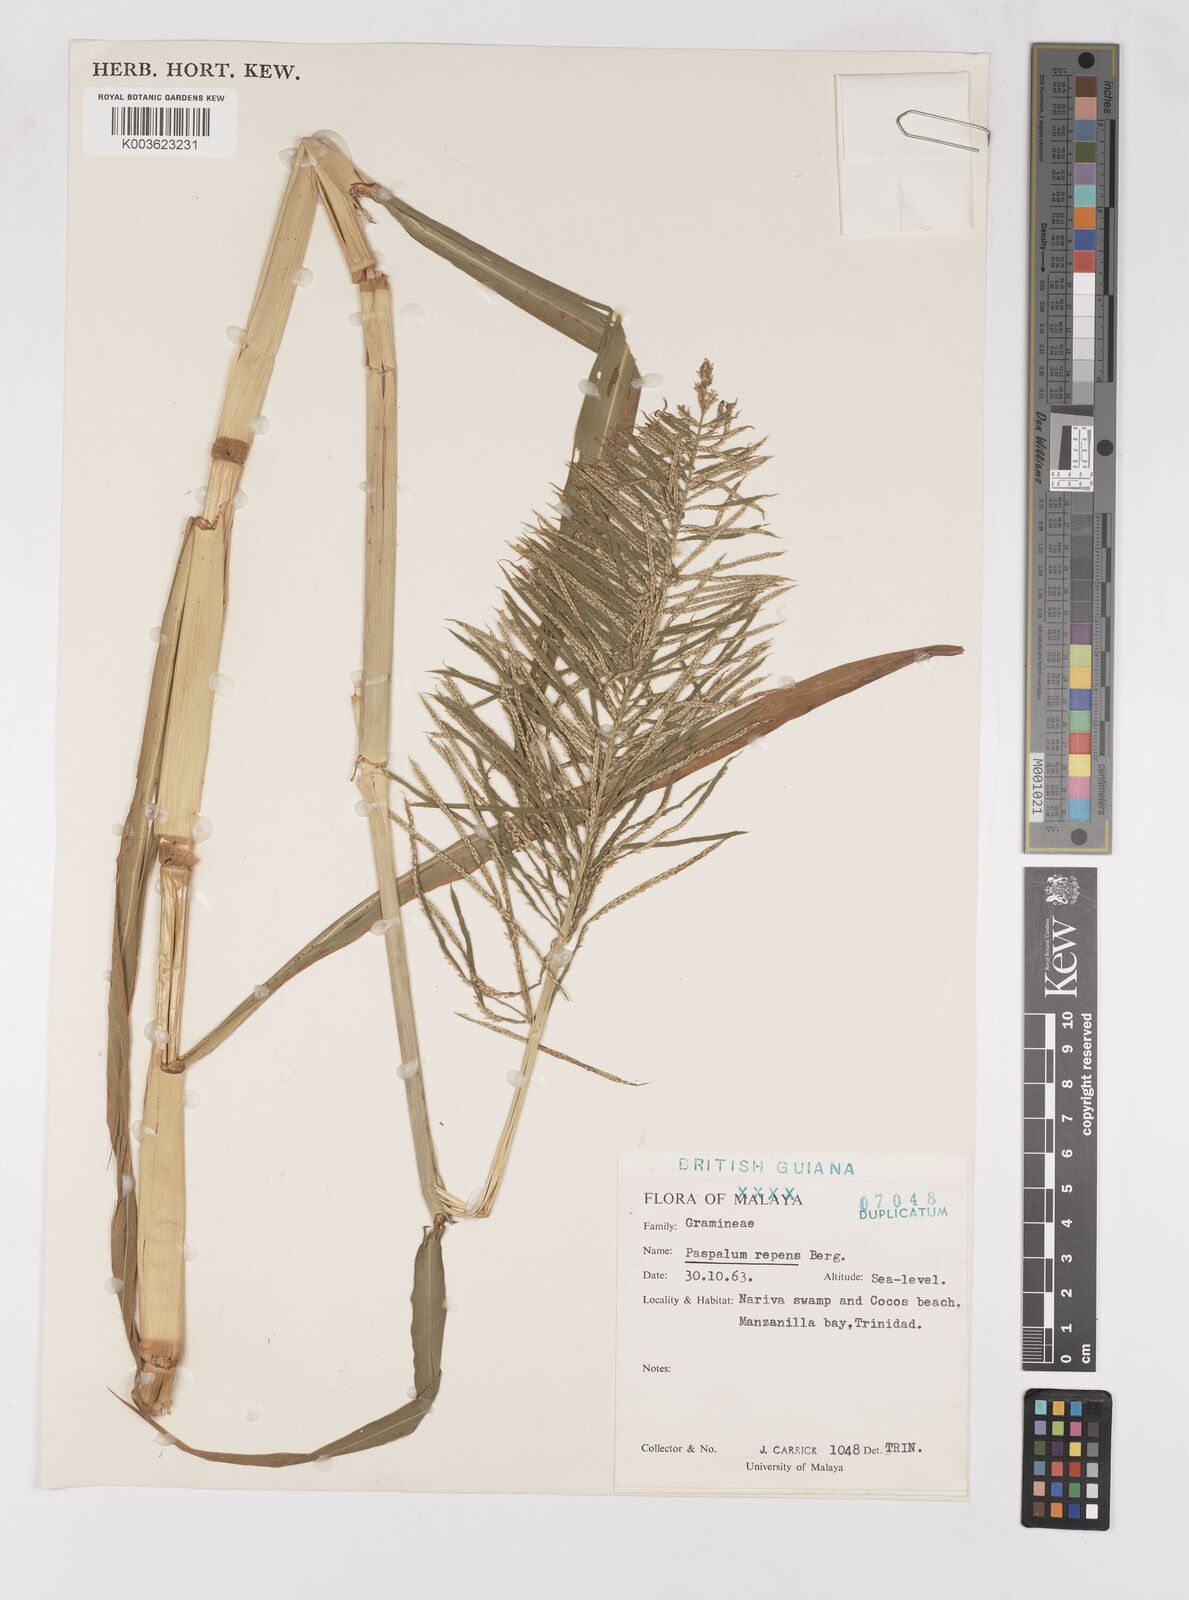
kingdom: Plantae
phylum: Tracheophyta
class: Liliopsida
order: Poales
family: Poaceae
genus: Paspalum
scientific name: Paspalum repens
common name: Water paspalum
